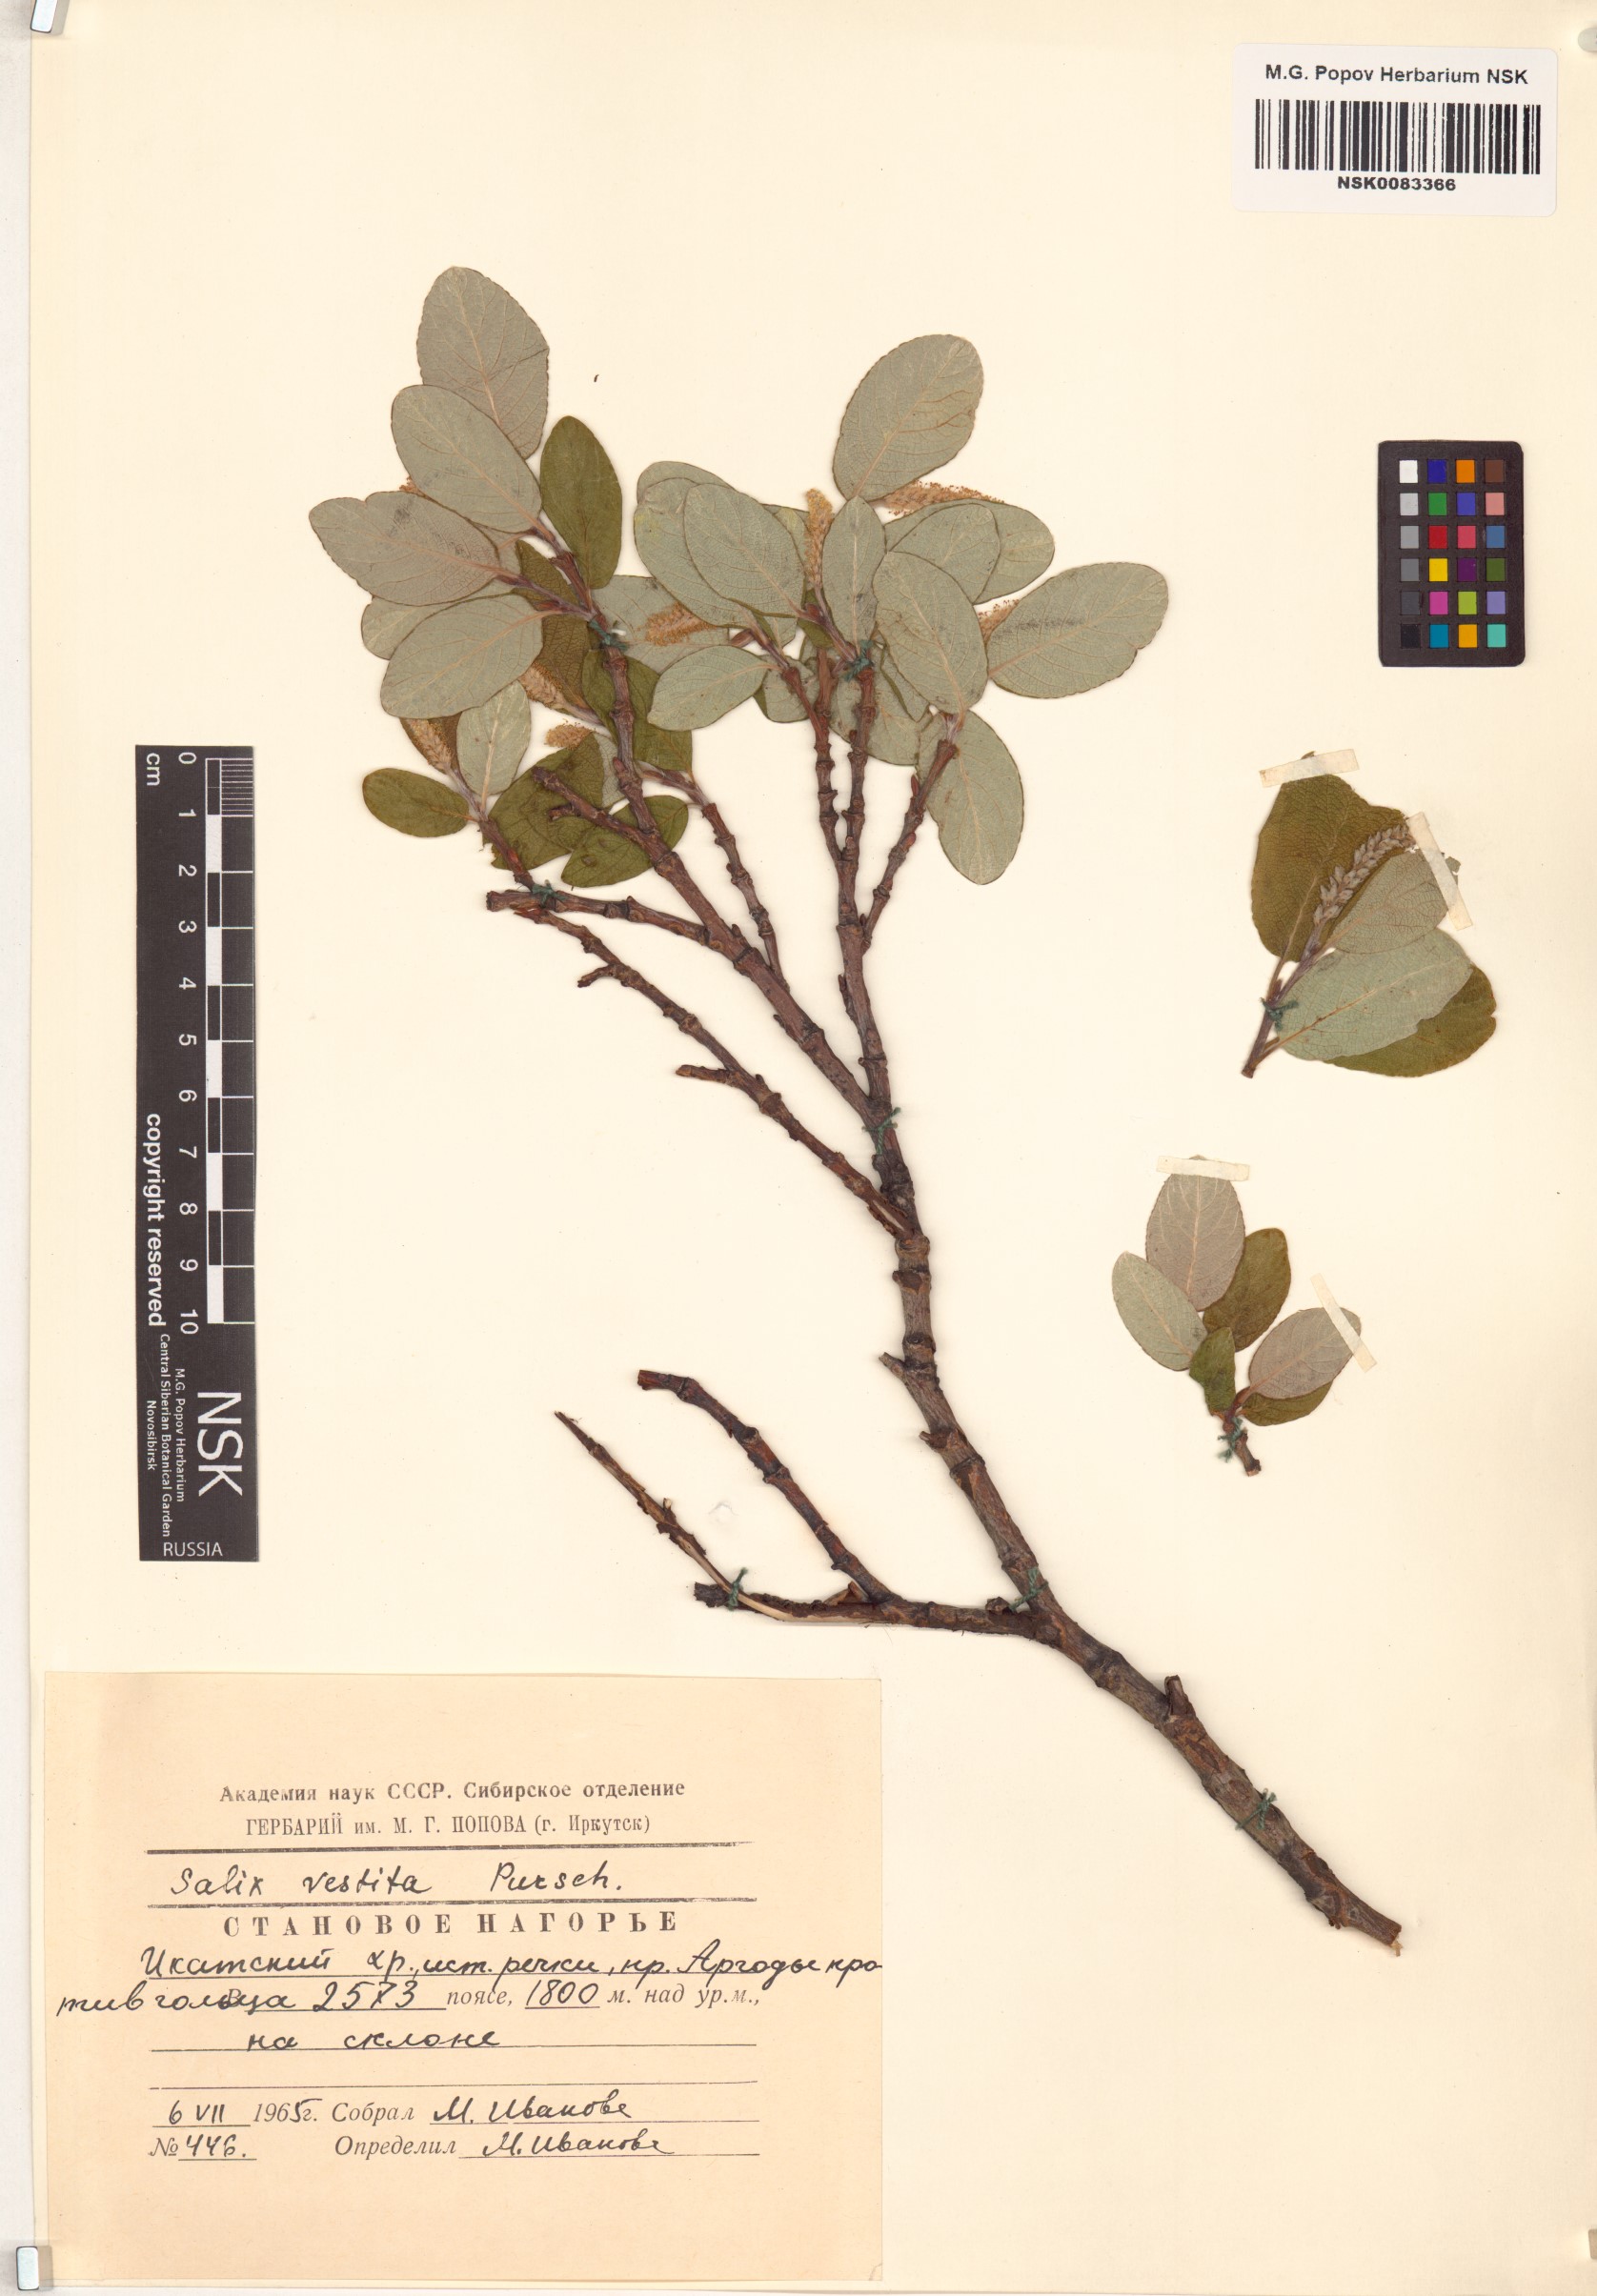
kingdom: Plantae
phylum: Tracheophyta
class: Magnoliopsida
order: Malpighiales
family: Salicaceae
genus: Salix
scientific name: Salix vestita
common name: Hairy willow
